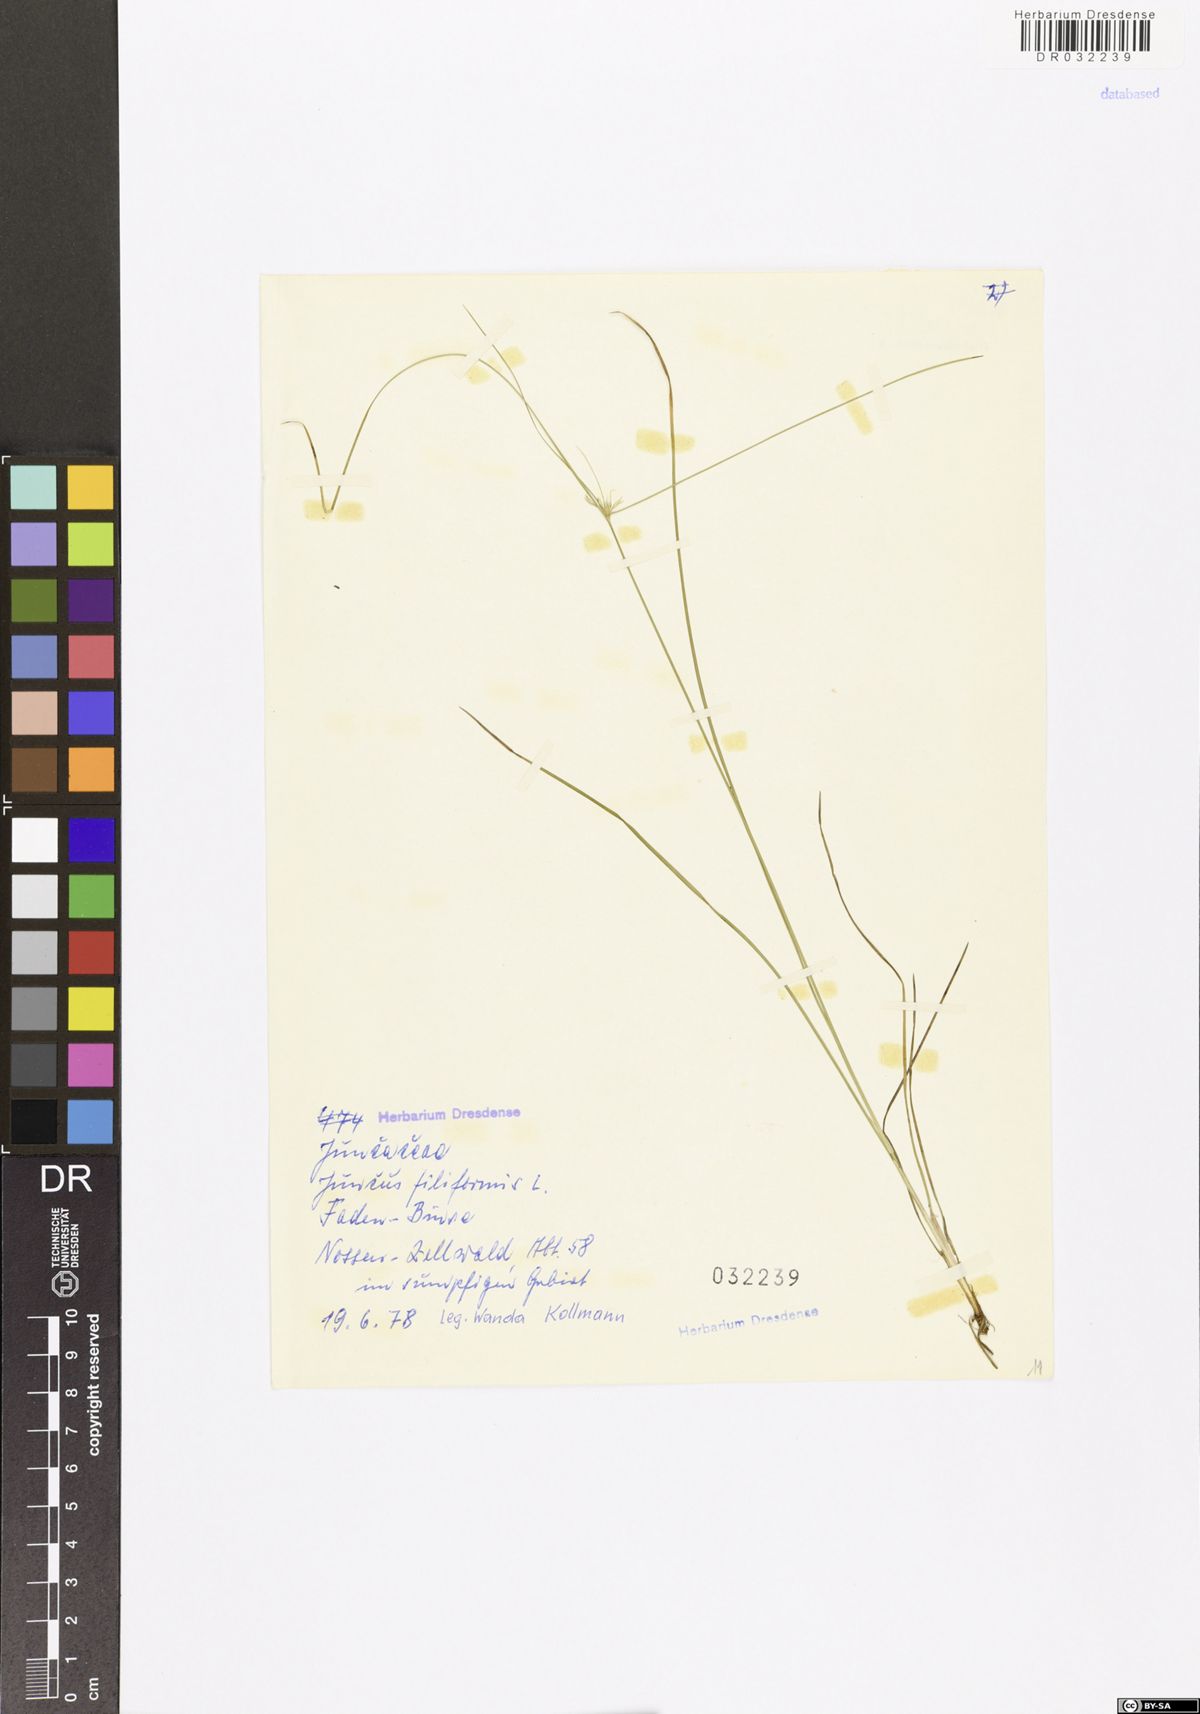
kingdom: Plantae
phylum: Tracheophyta
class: Liliopsida
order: Poales
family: Juncaceae
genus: Juncus
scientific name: Juncus filiformis
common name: Thread rush
